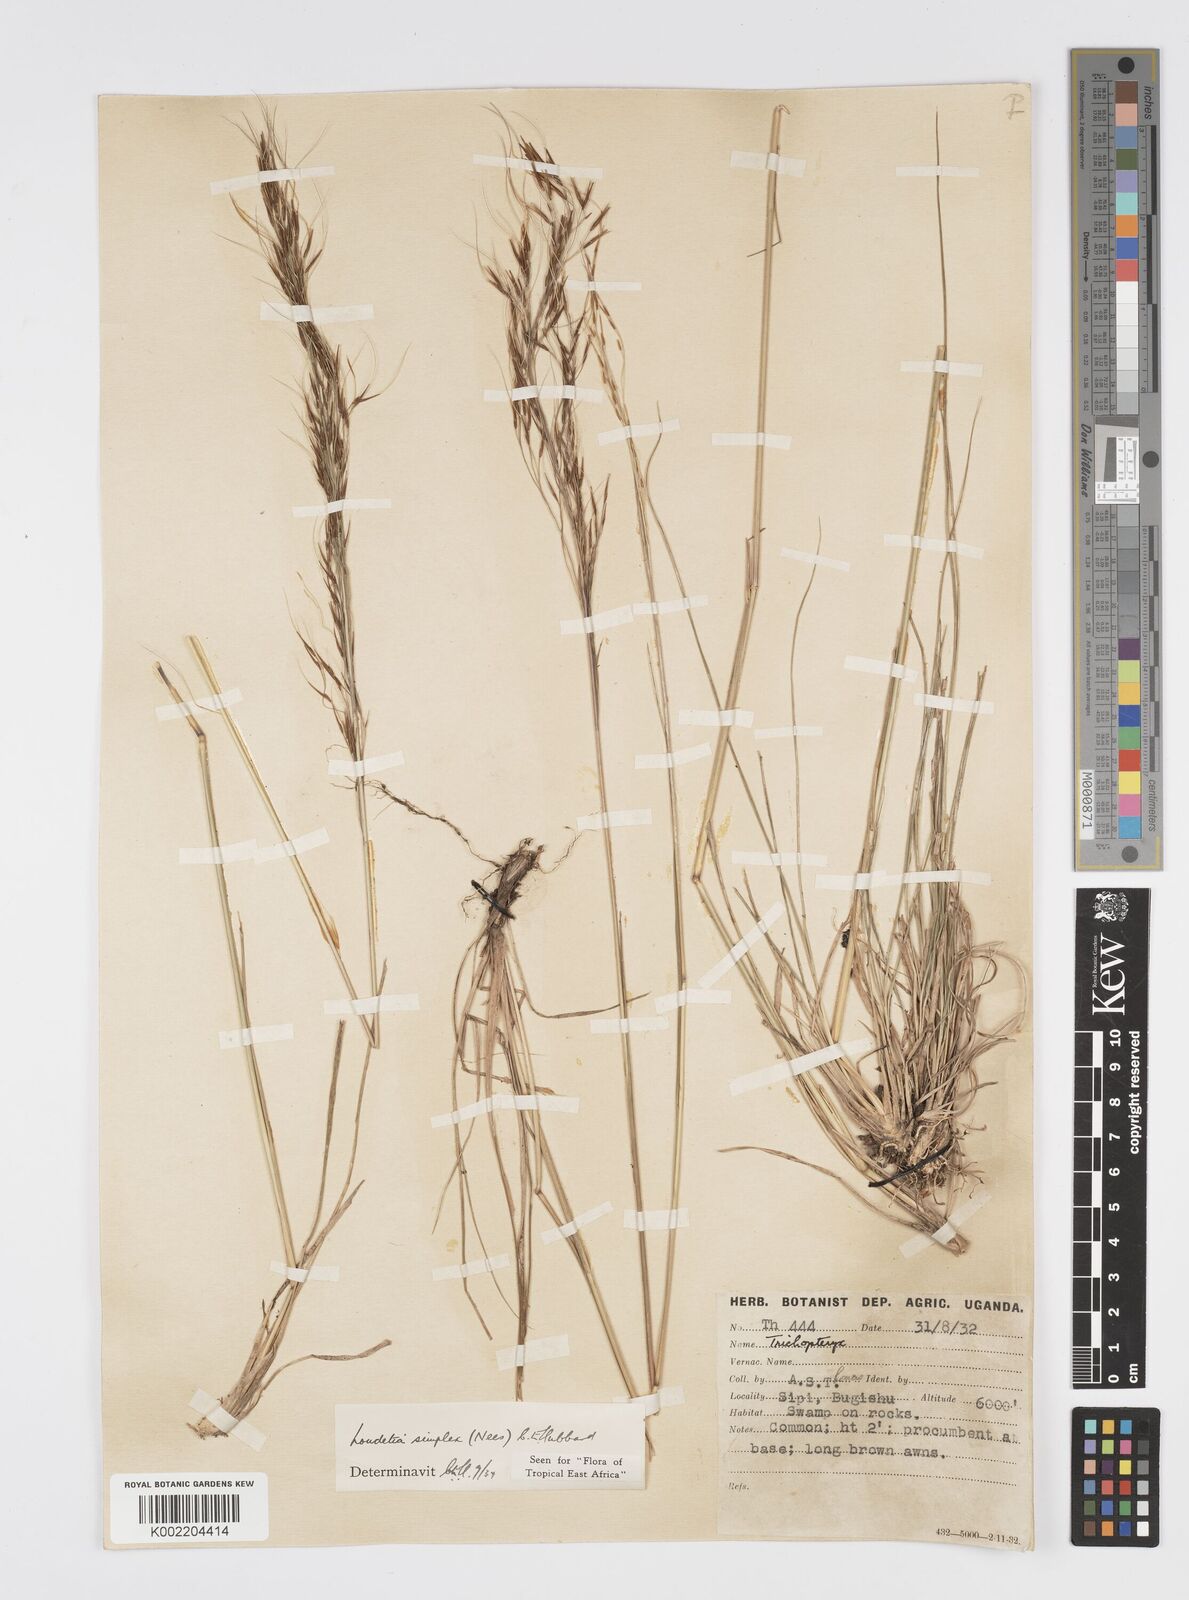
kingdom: Plantae
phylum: Tracheophyta
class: Liliopsida
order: Poales
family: Poaceae
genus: Loudetia
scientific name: Loudetia simplex
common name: Common russet grass
